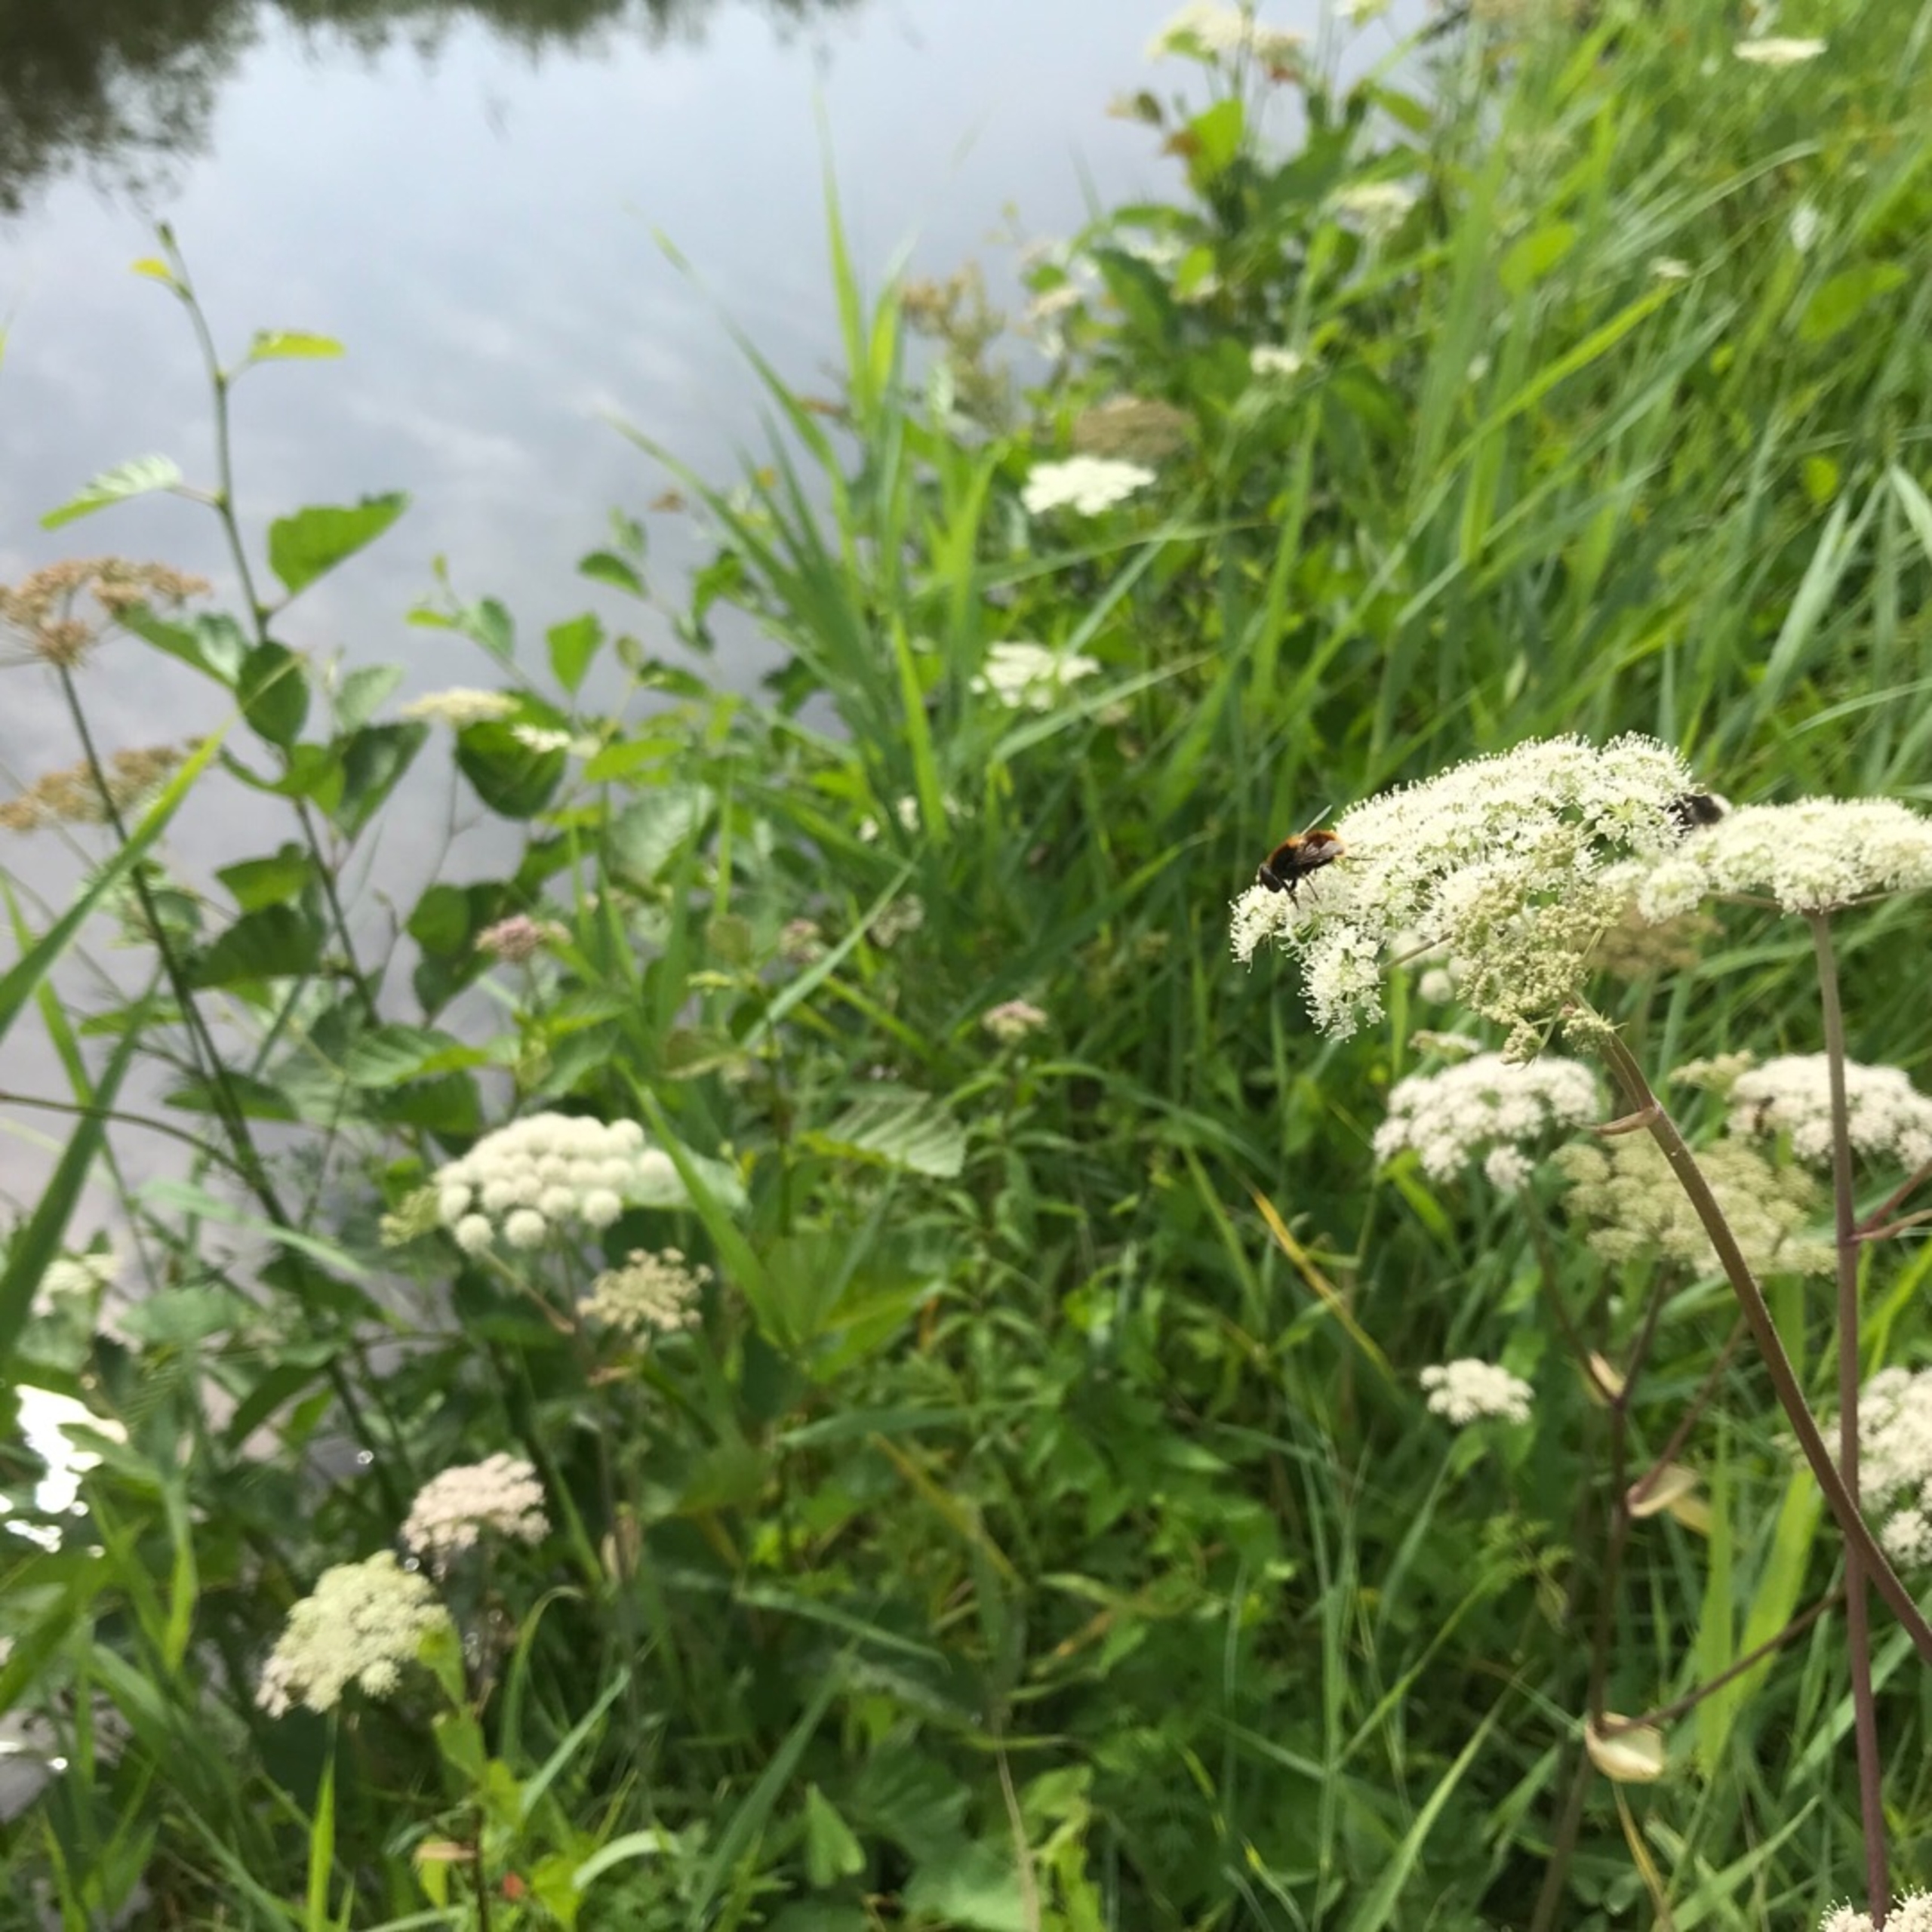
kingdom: Animalia
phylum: Arthropoda
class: Insecta
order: Diptera
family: Syrphidae
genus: Eristalis
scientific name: Eristalis intricaria
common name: Håret dyndflue
